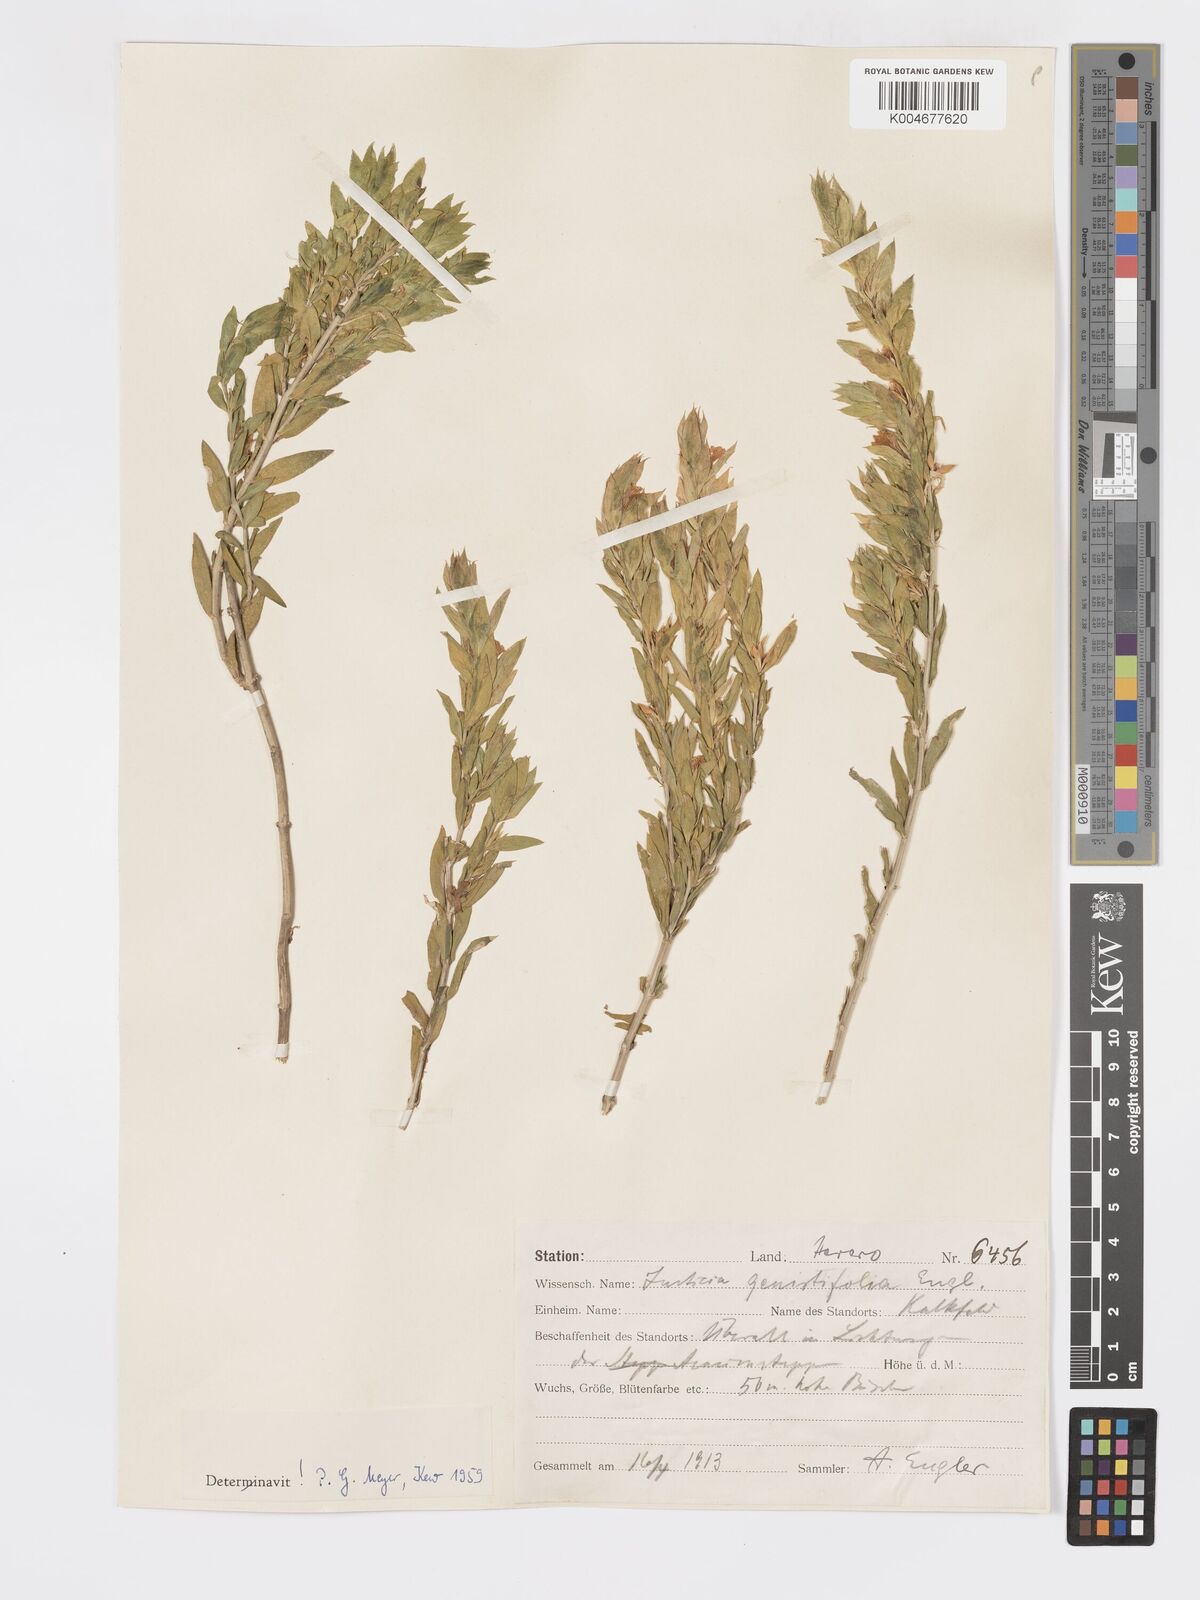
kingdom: Plantae
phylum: Tracheophyta
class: Magnoliopsida
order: Lamiales
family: Acanthaceae
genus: Pogonospermum
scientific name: Pogonospermum
